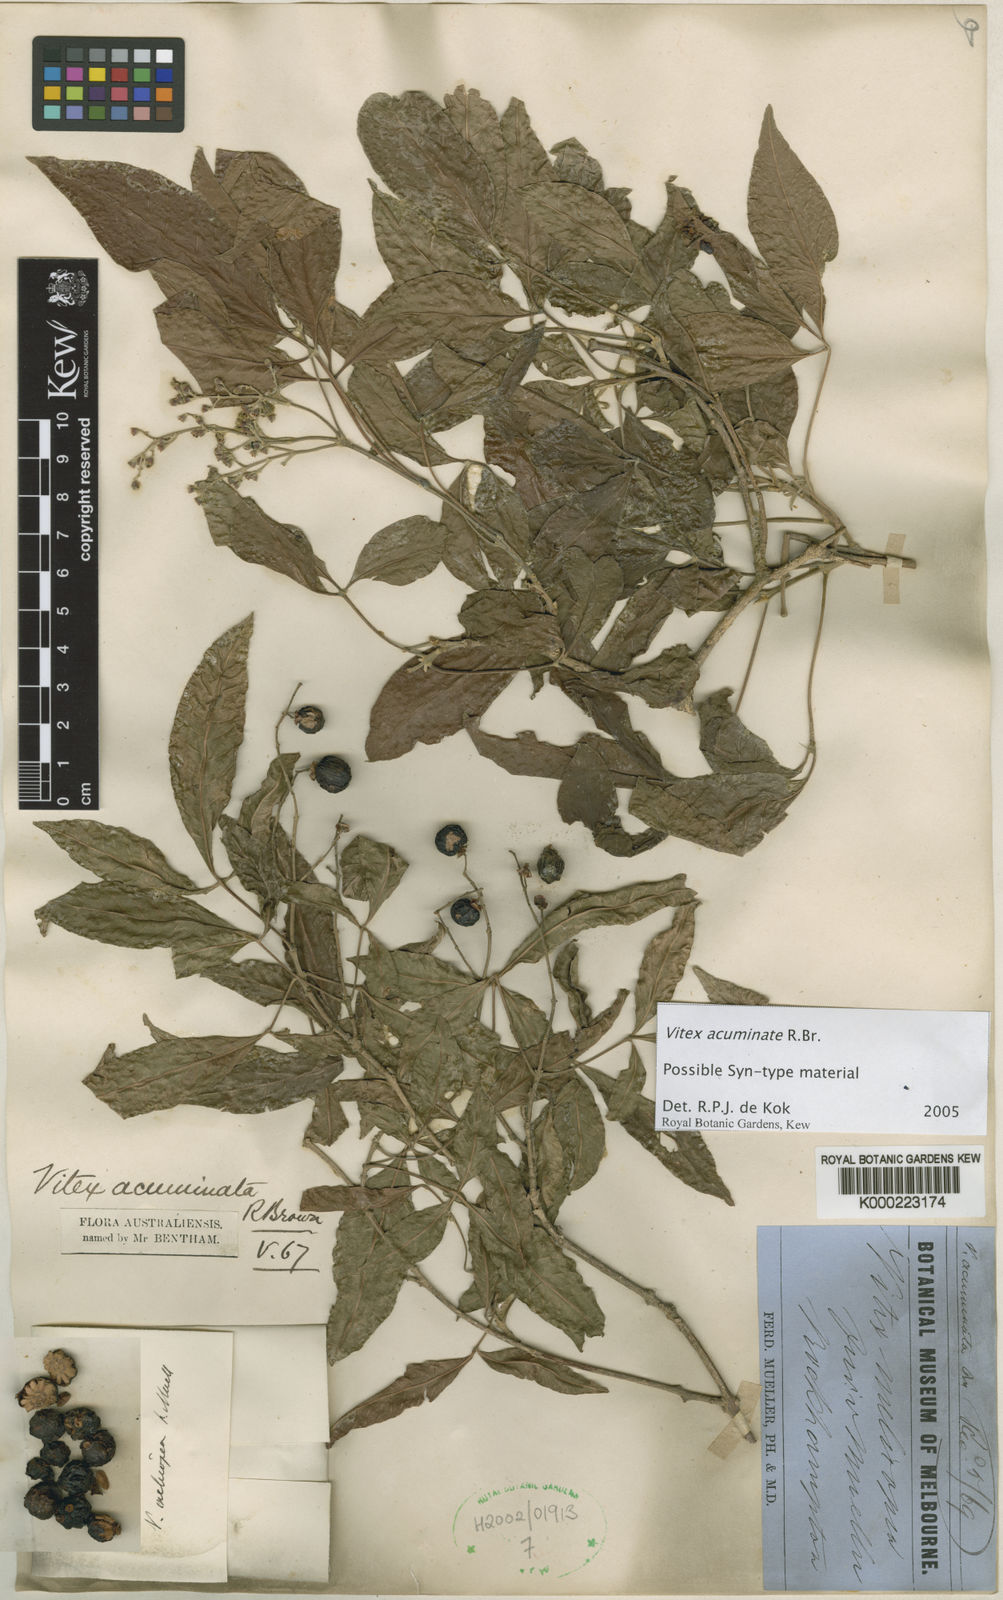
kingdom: Plantae
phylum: Tracheophyta
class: Magnoliopsida
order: Lamiales
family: Lamiaceae
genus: Vitex
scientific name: Vitex acuminata
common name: Black-plum
